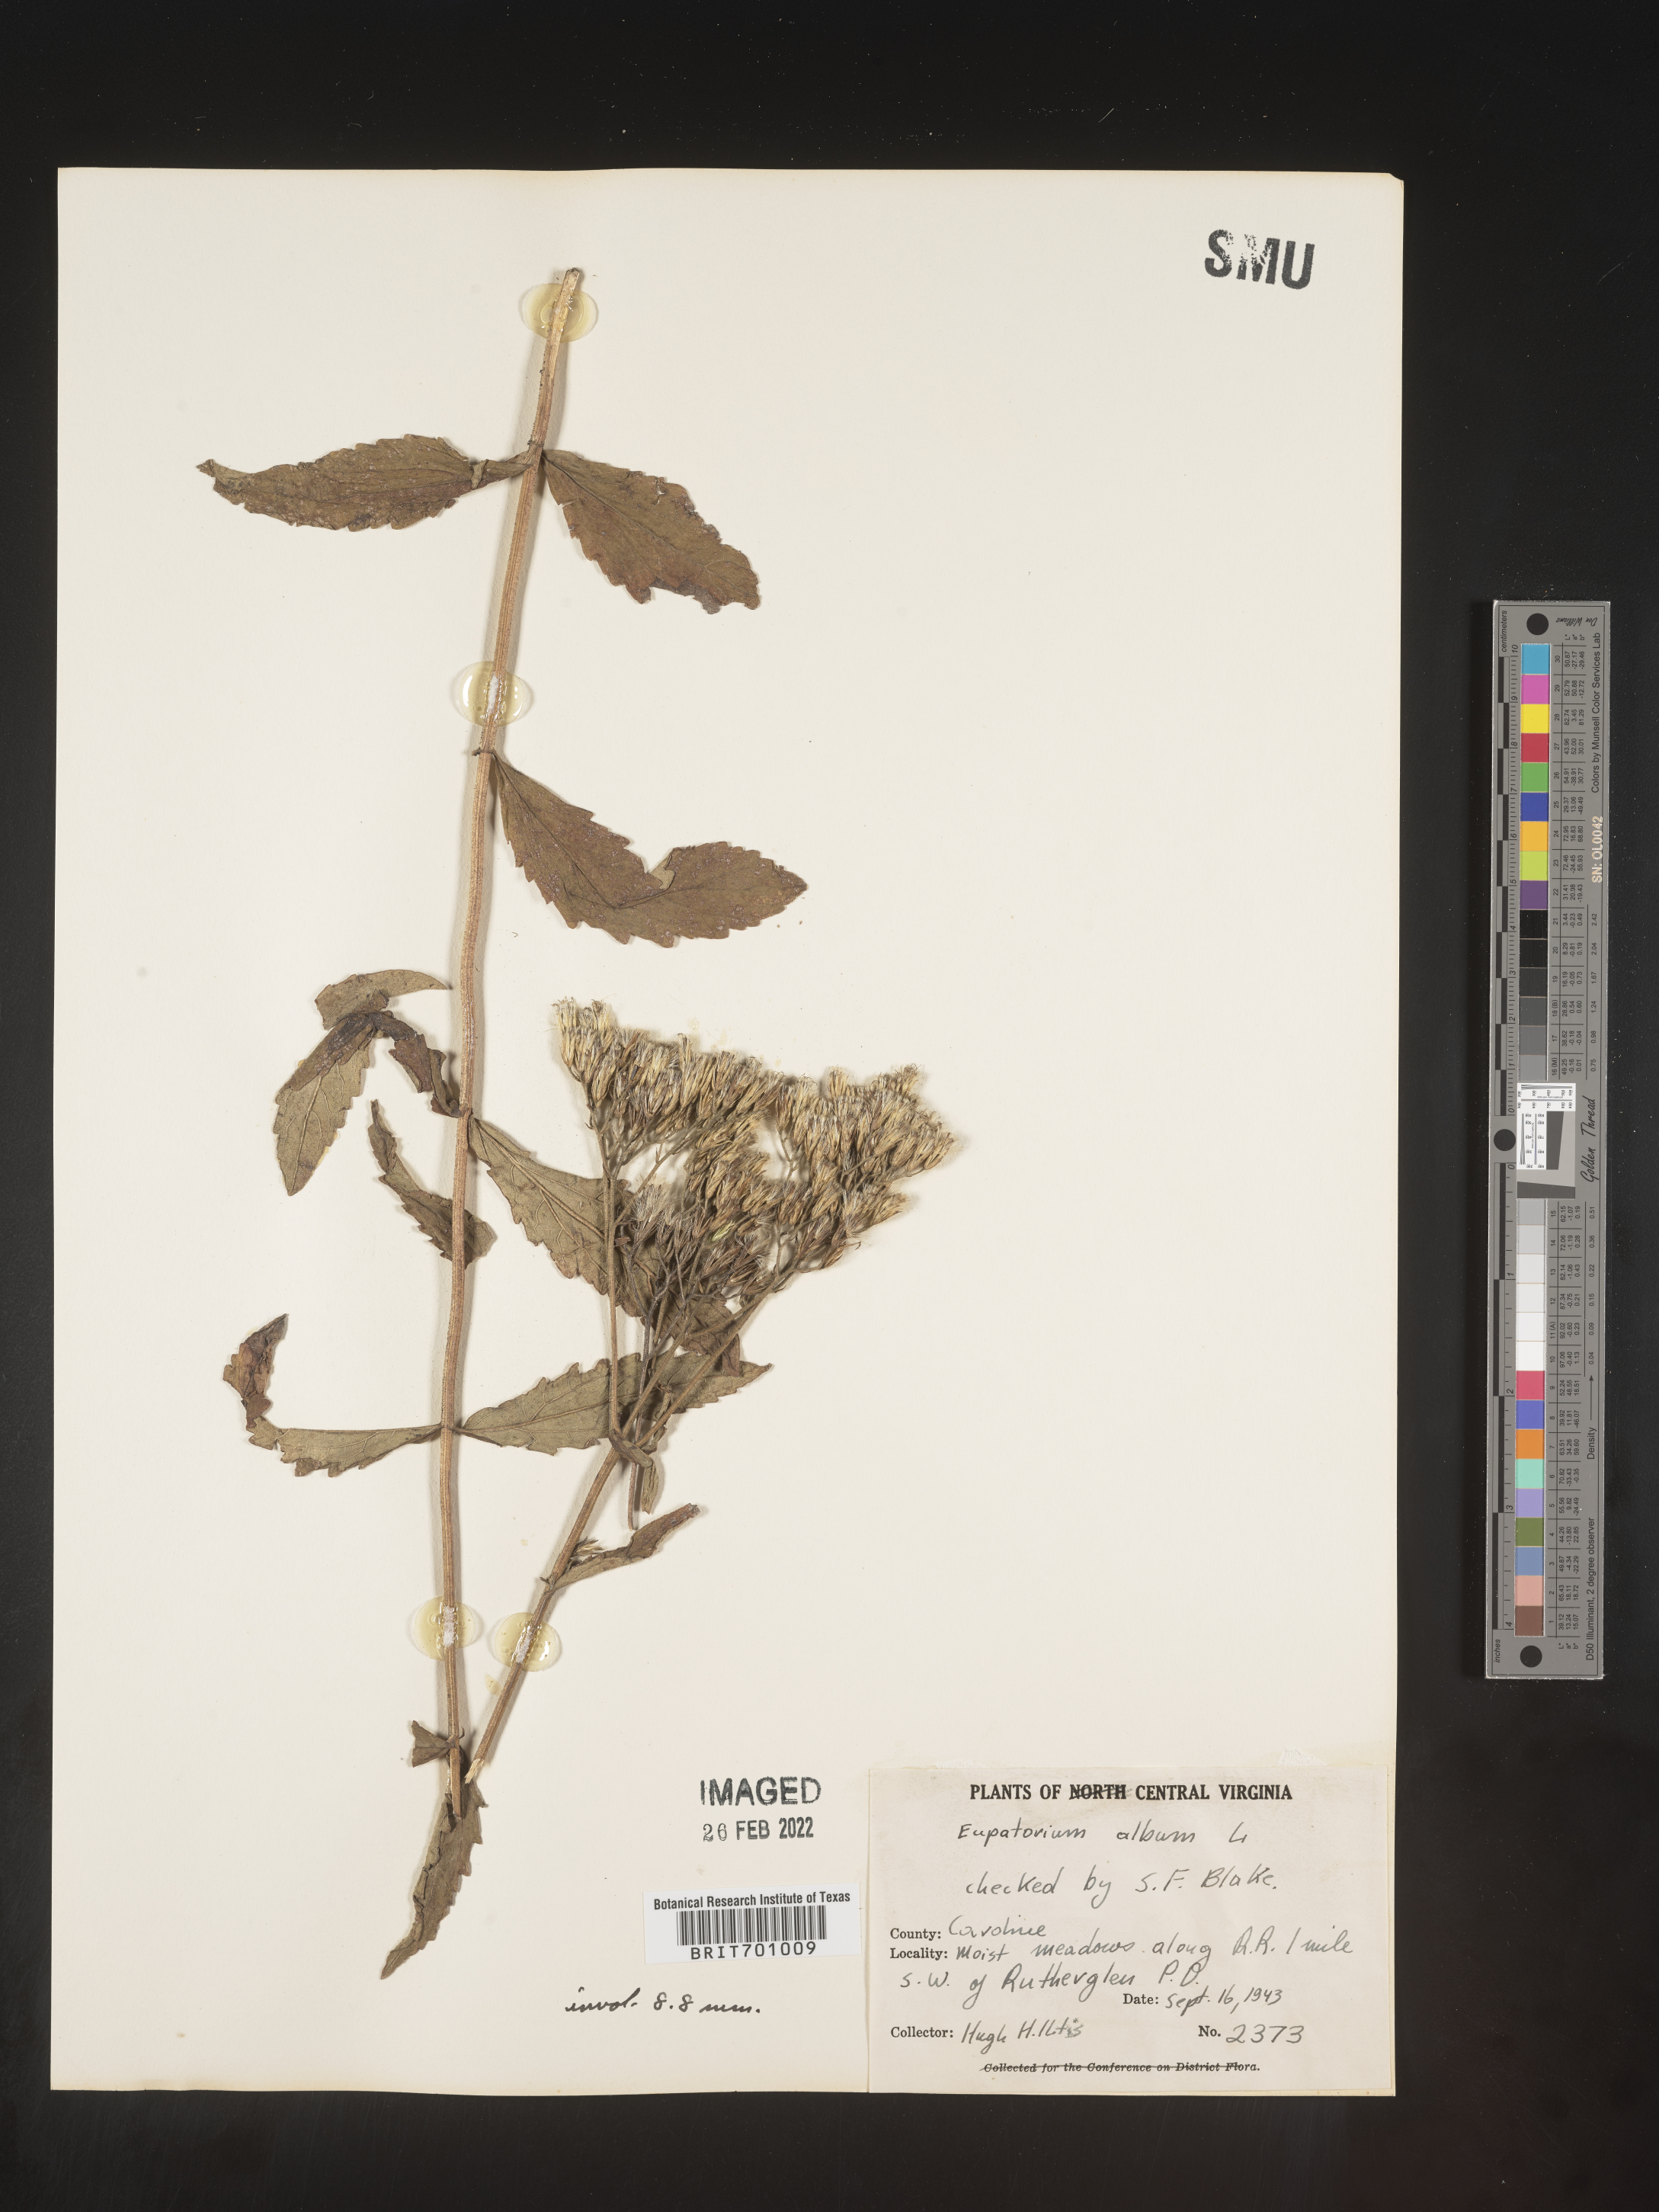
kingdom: Plantae
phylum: Tracheophyta
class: Magnoliopsida
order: Asterales
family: Asteraceae
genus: Eupatorium
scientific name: Eupatorium album
